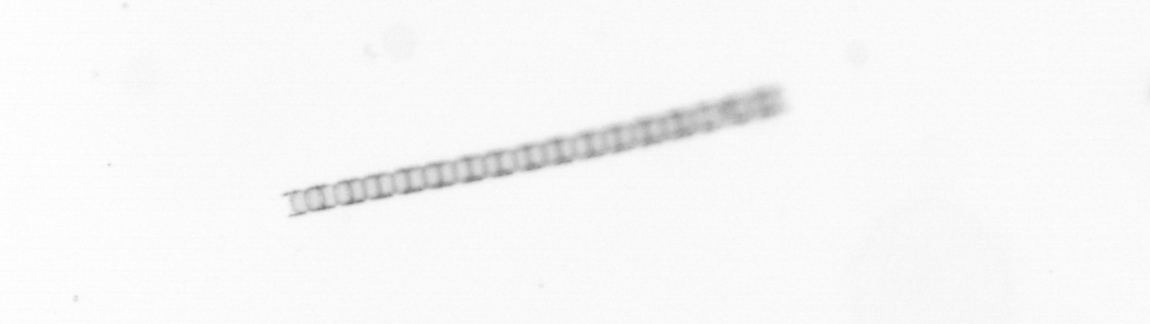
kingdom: Chromista
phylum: Ochrophyta
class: Bacillariophyceae
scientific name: Bacillariophyceae
